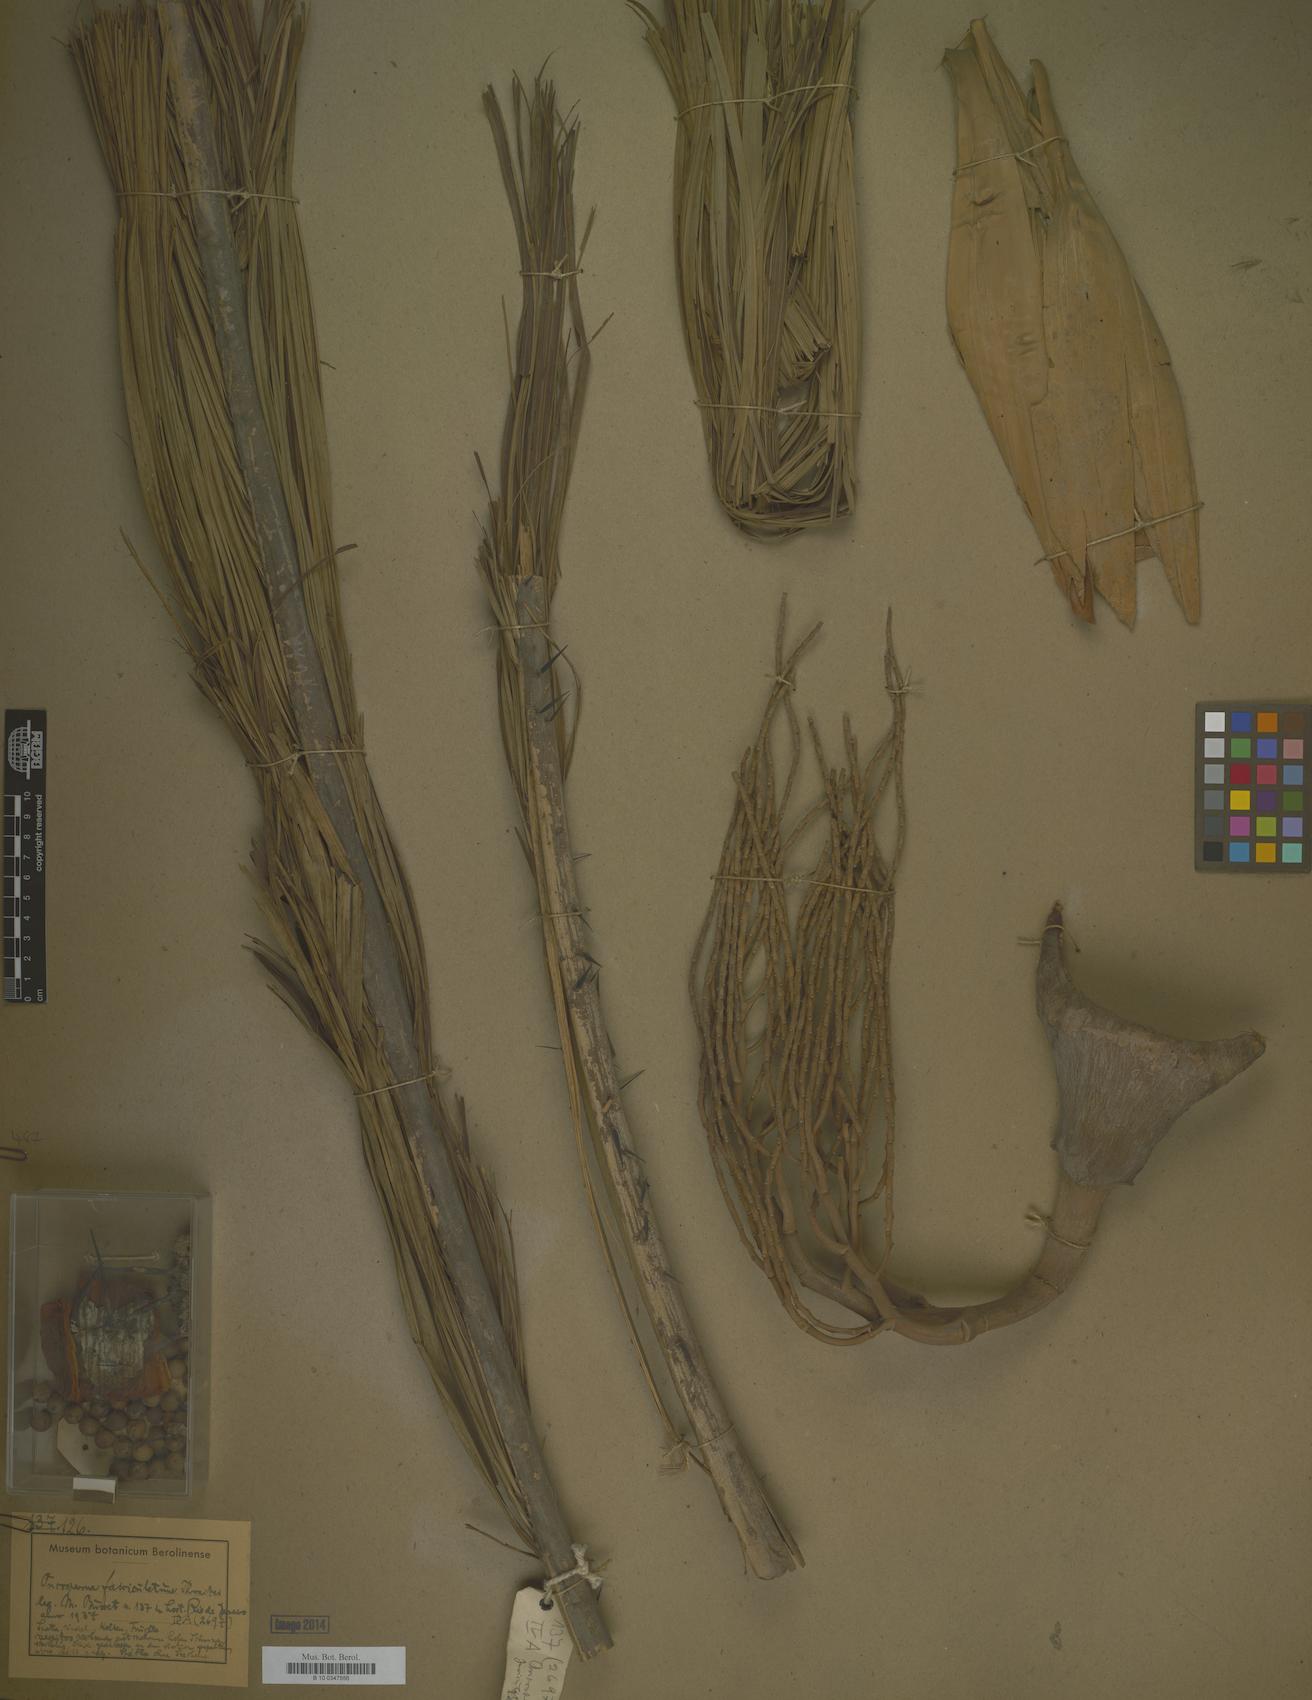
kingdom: Plantae
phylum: Tracheophyta
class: Liliopsida
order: Arecales
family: Arecaceae
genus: Oncosperma
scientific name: Oncosperma fasciculatum
